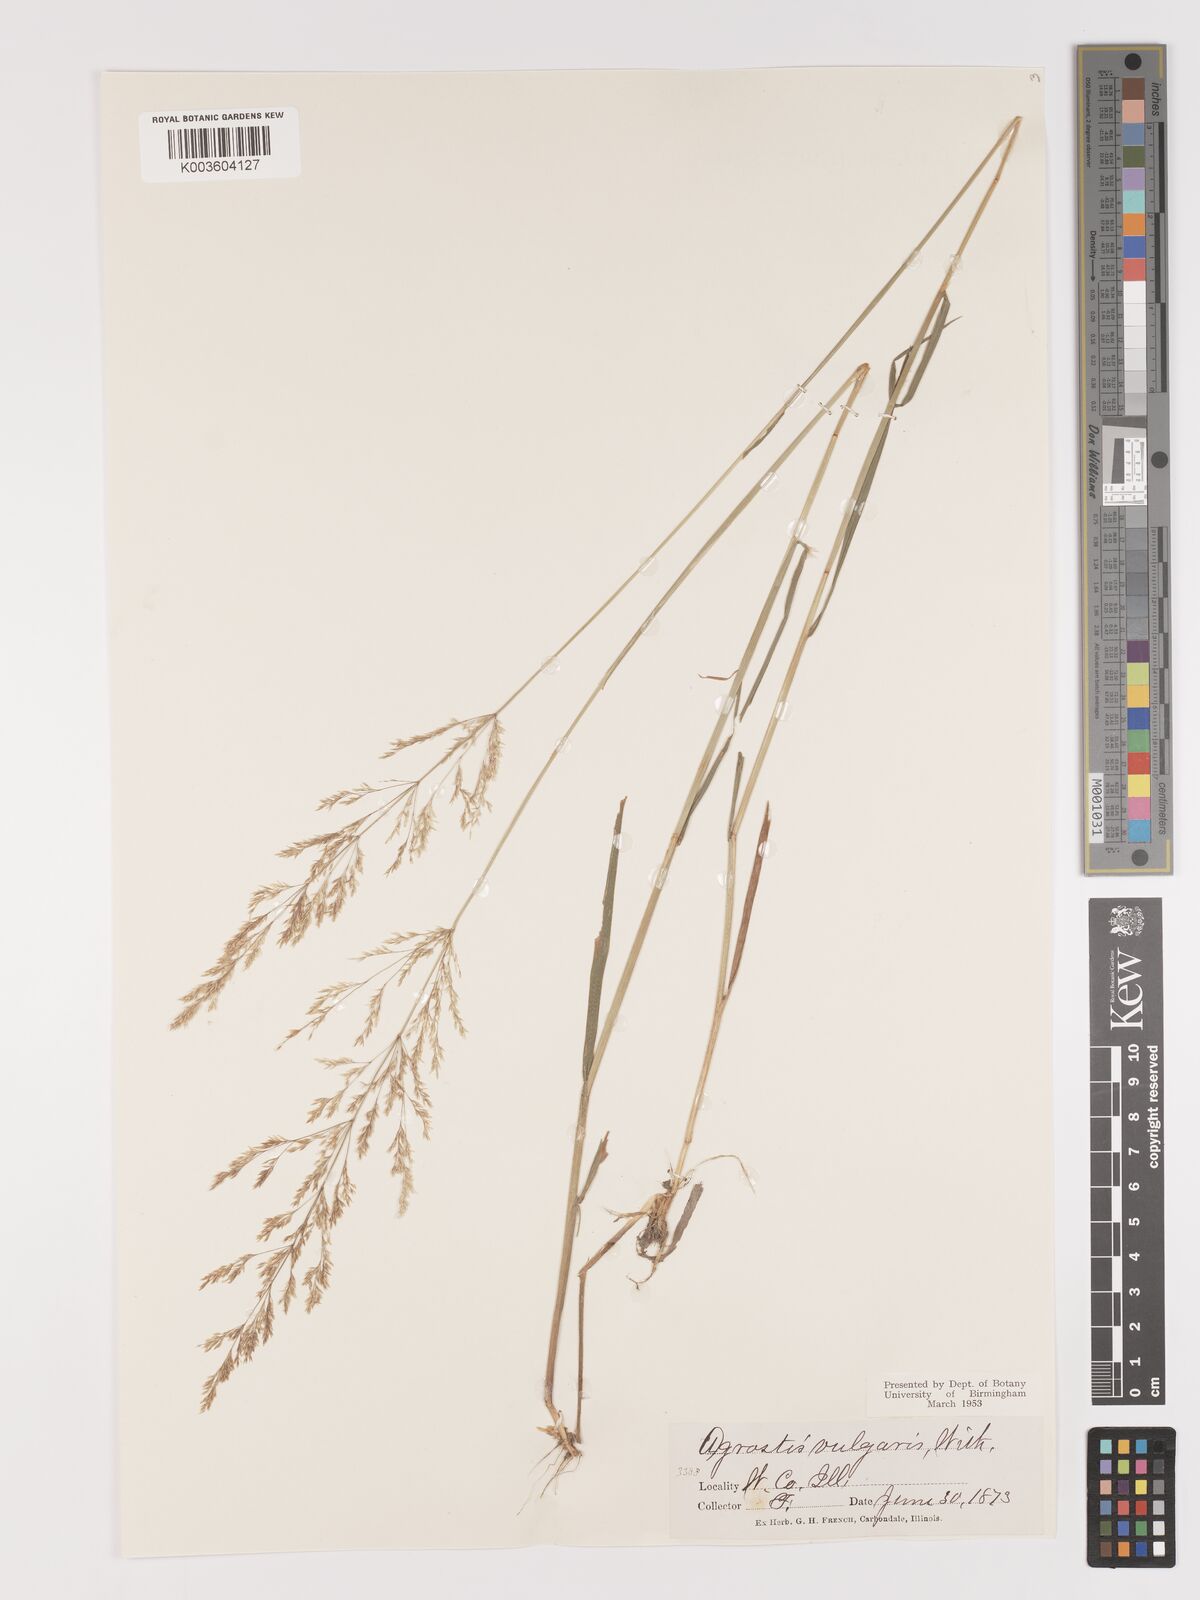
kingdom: Plantae
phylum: Tracheophyta
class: Liliopsida
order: Poales
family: Poaceae
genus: Agrostis
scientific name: Agrostis capillaris
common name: Colonial bentgrass
